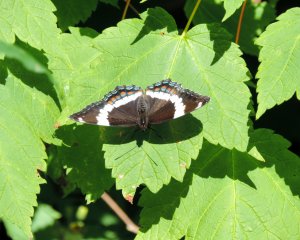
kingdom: Animalia
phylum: Arthropoda
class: Insecta
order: Lepidoptera
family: Nymphalidae
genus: Limenitis
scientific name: Limenitis arthemis
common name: Red-spotted Admiral
